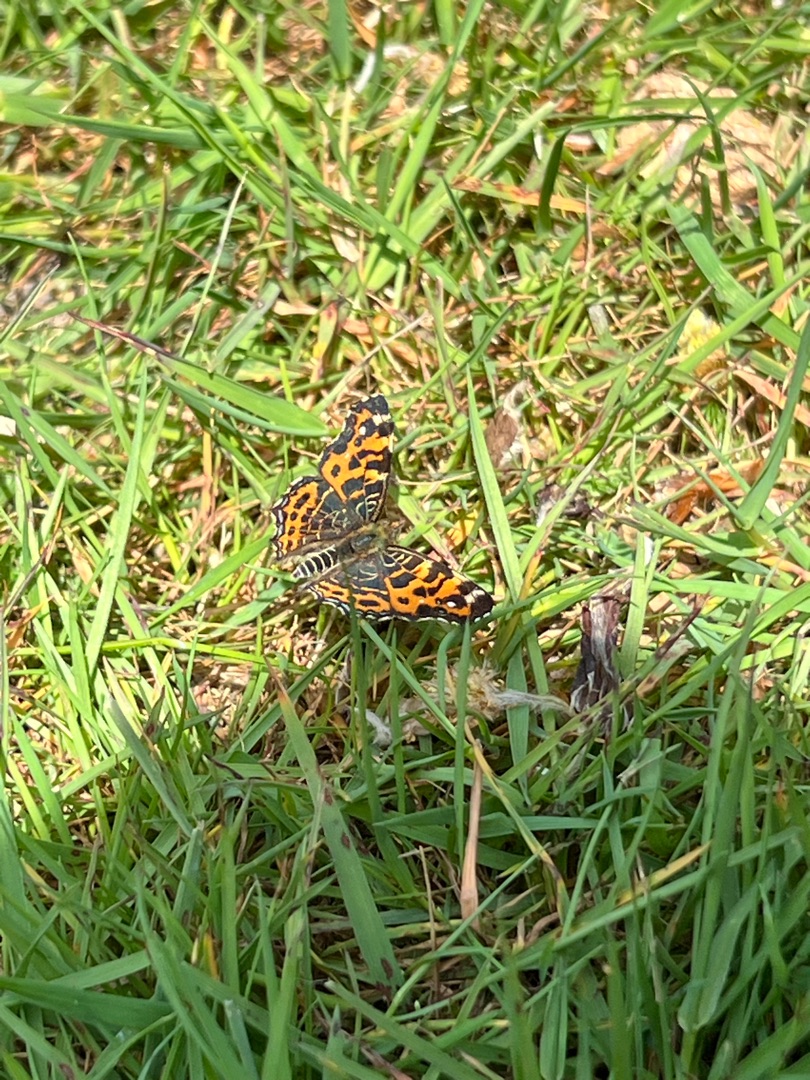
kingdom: Animalia
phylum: Arthropoda
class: Insecta
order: Lepidoptera
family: Nymphalidae
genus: Araschnia
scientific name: Araschnia levana
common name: Nældesommerfugl
